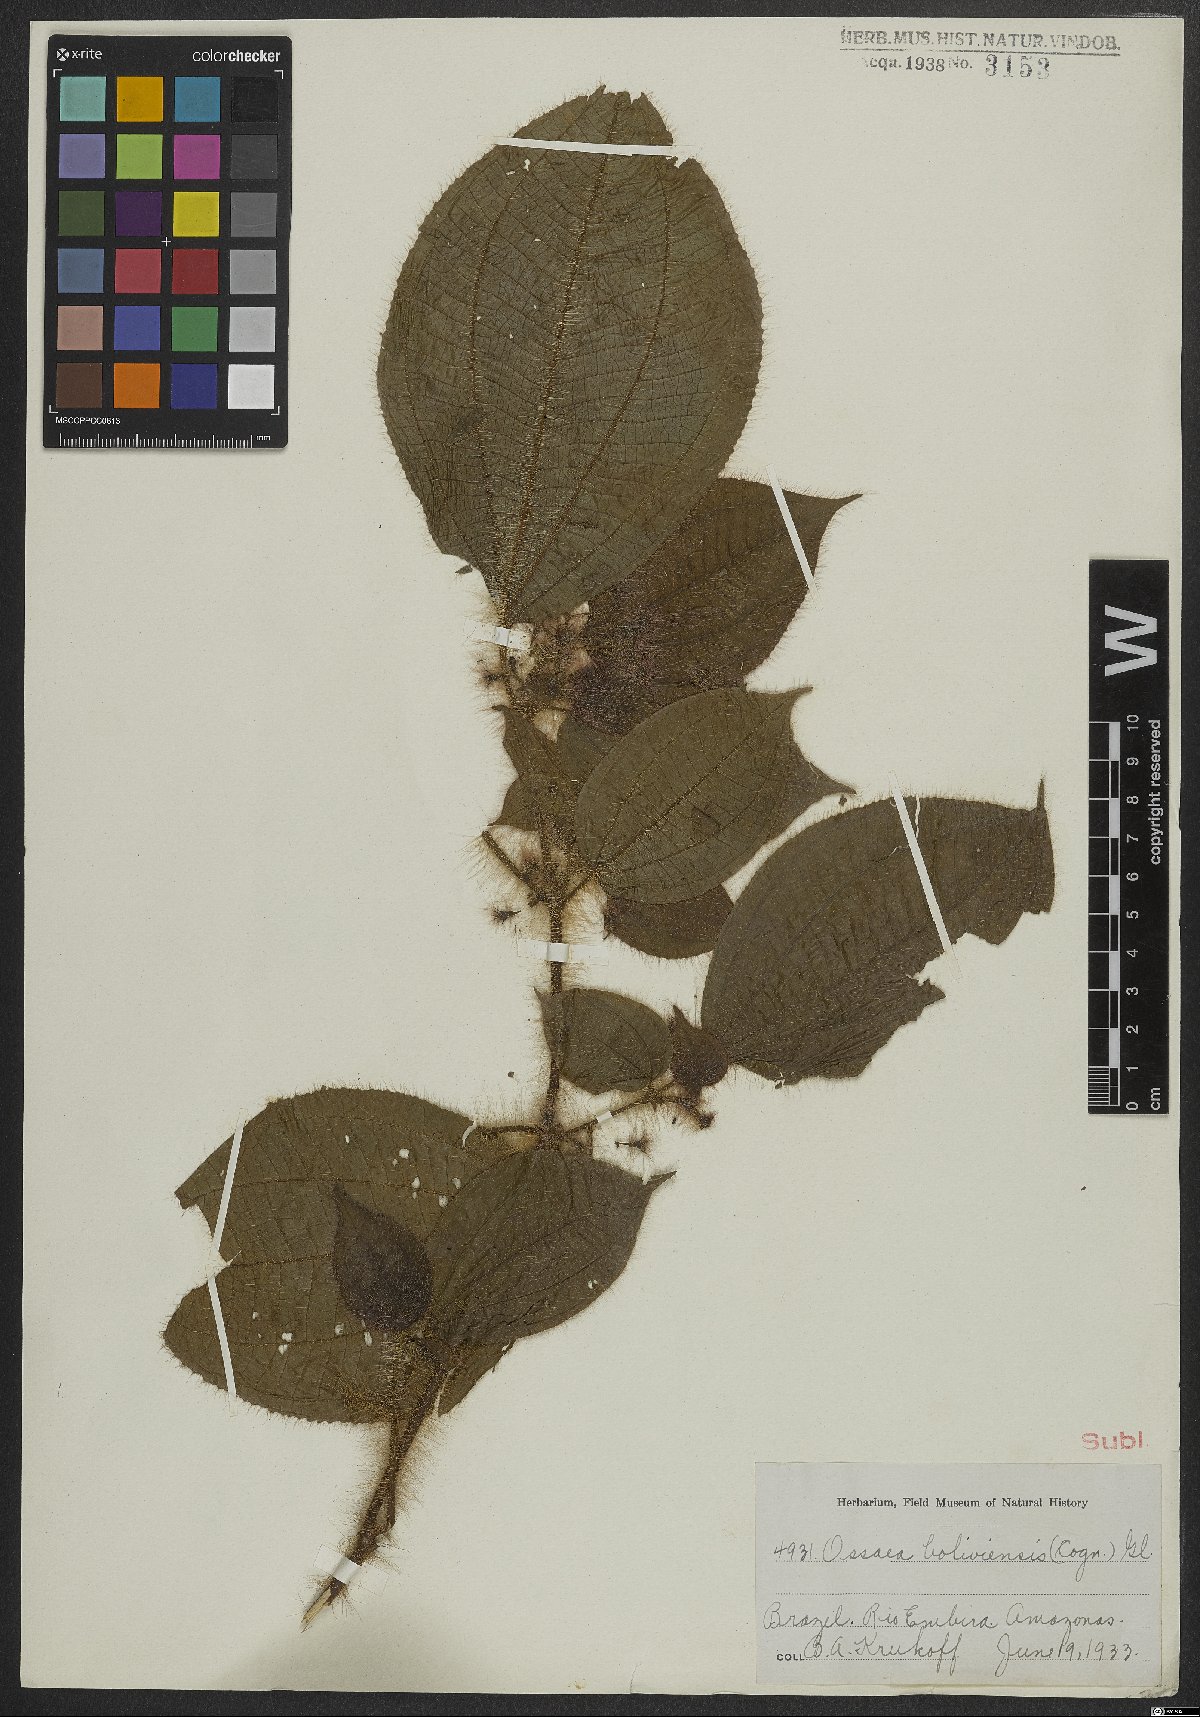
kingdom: Plantae
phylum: Tracheophyta
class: Magnoliopsida
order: Myrtales
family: Melastomataceae
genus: Miconia
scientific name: Miconia violascens
